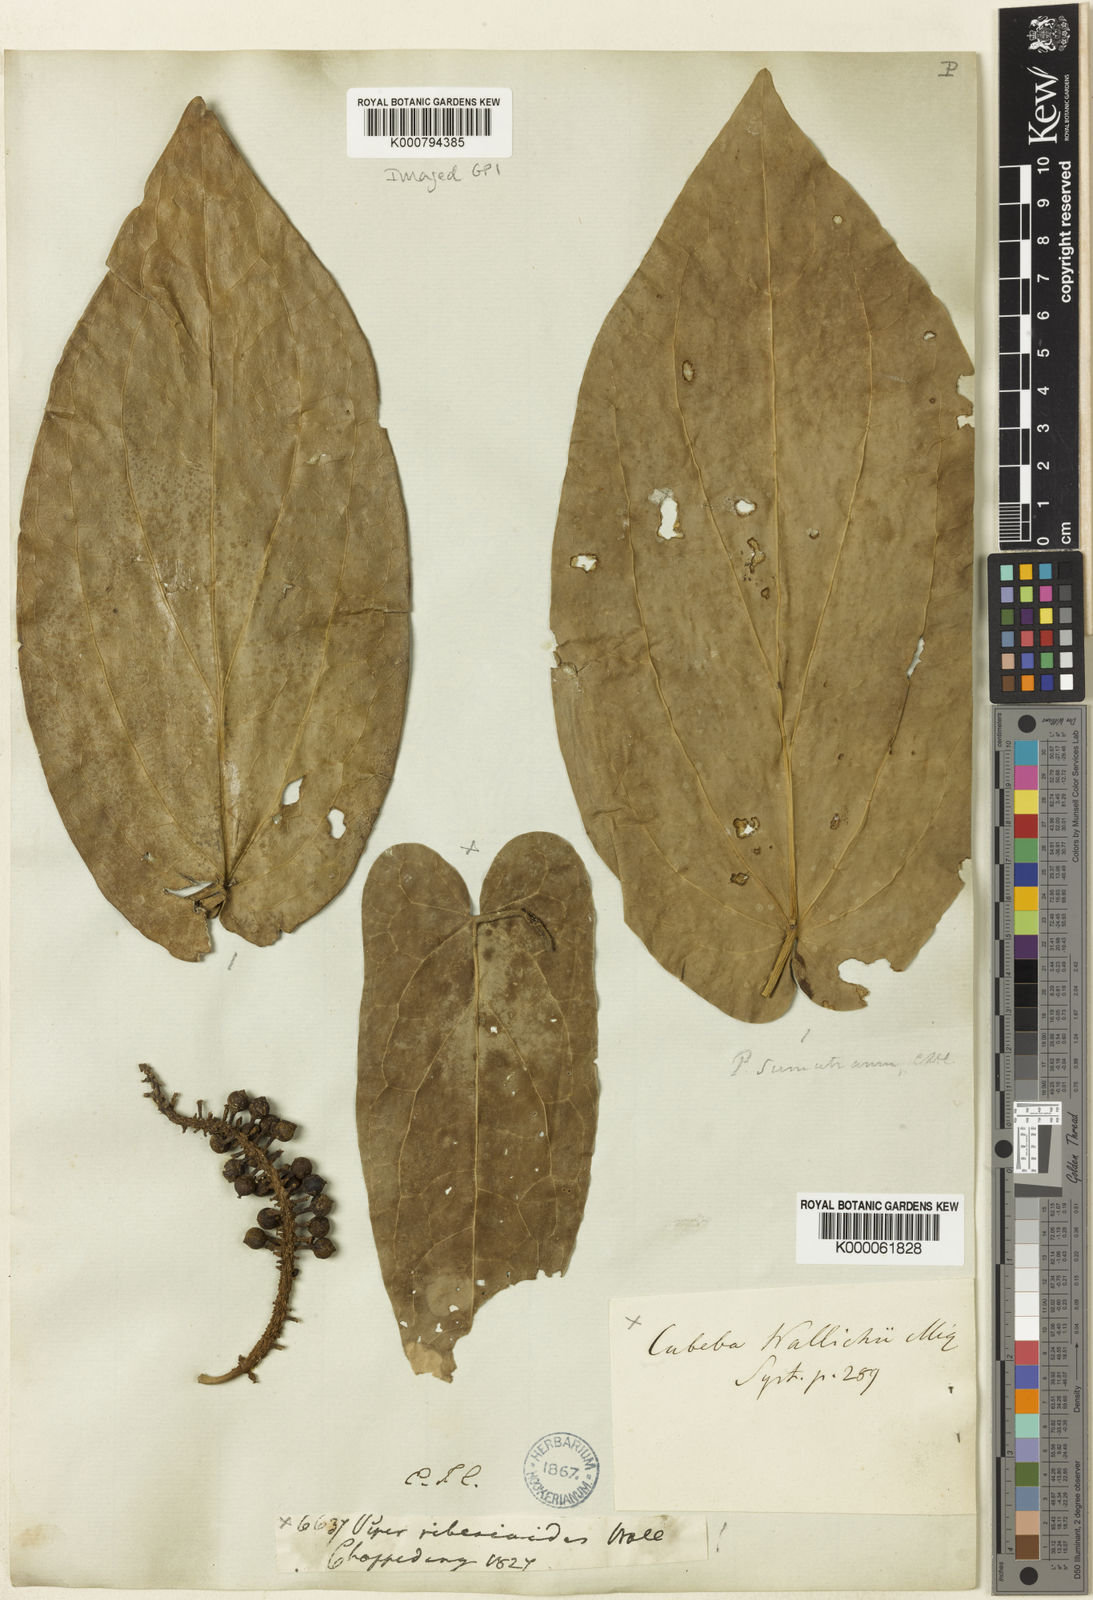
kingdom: Plantae
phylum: Tracheophyta
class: Magnoliopsida
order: Piperales
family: Piperaceae
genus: Piper
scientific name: Piper ribesioides
